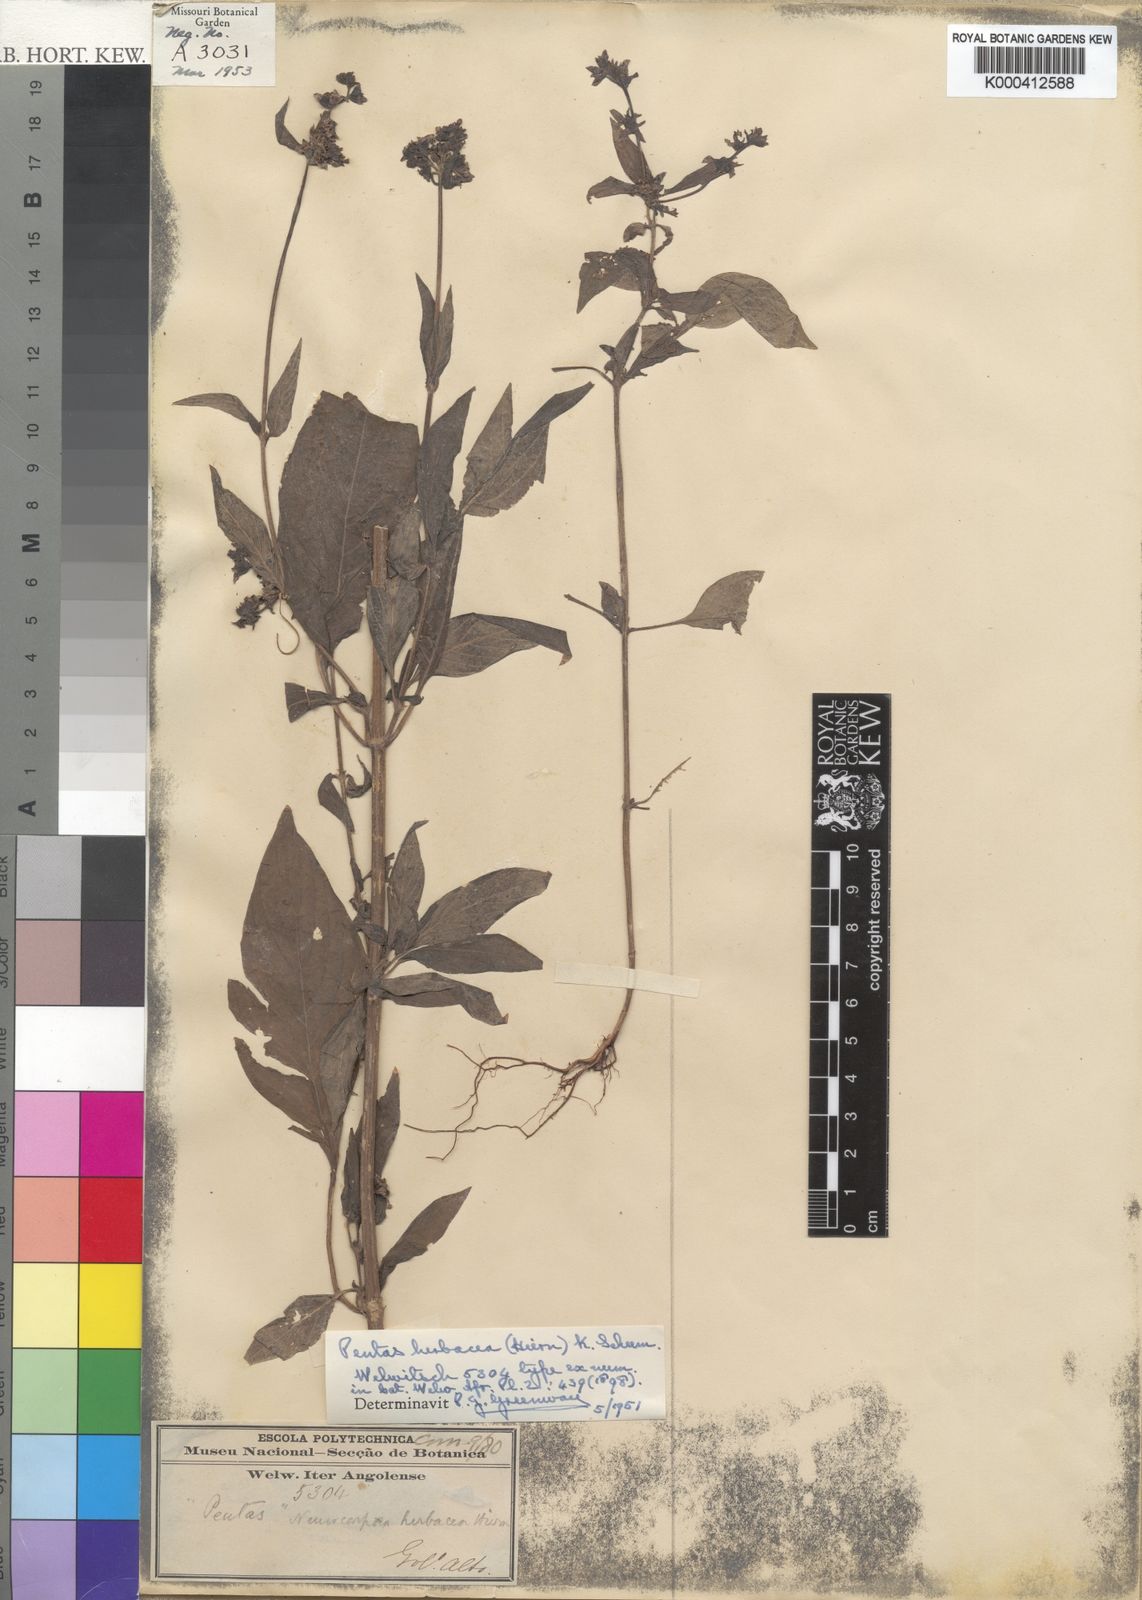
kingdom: Plantae
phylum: Tracheophyta
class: Magnoliopsida
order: Gentianales
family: Rubiaceae
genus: Pentas
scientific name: Pentas herbacea
